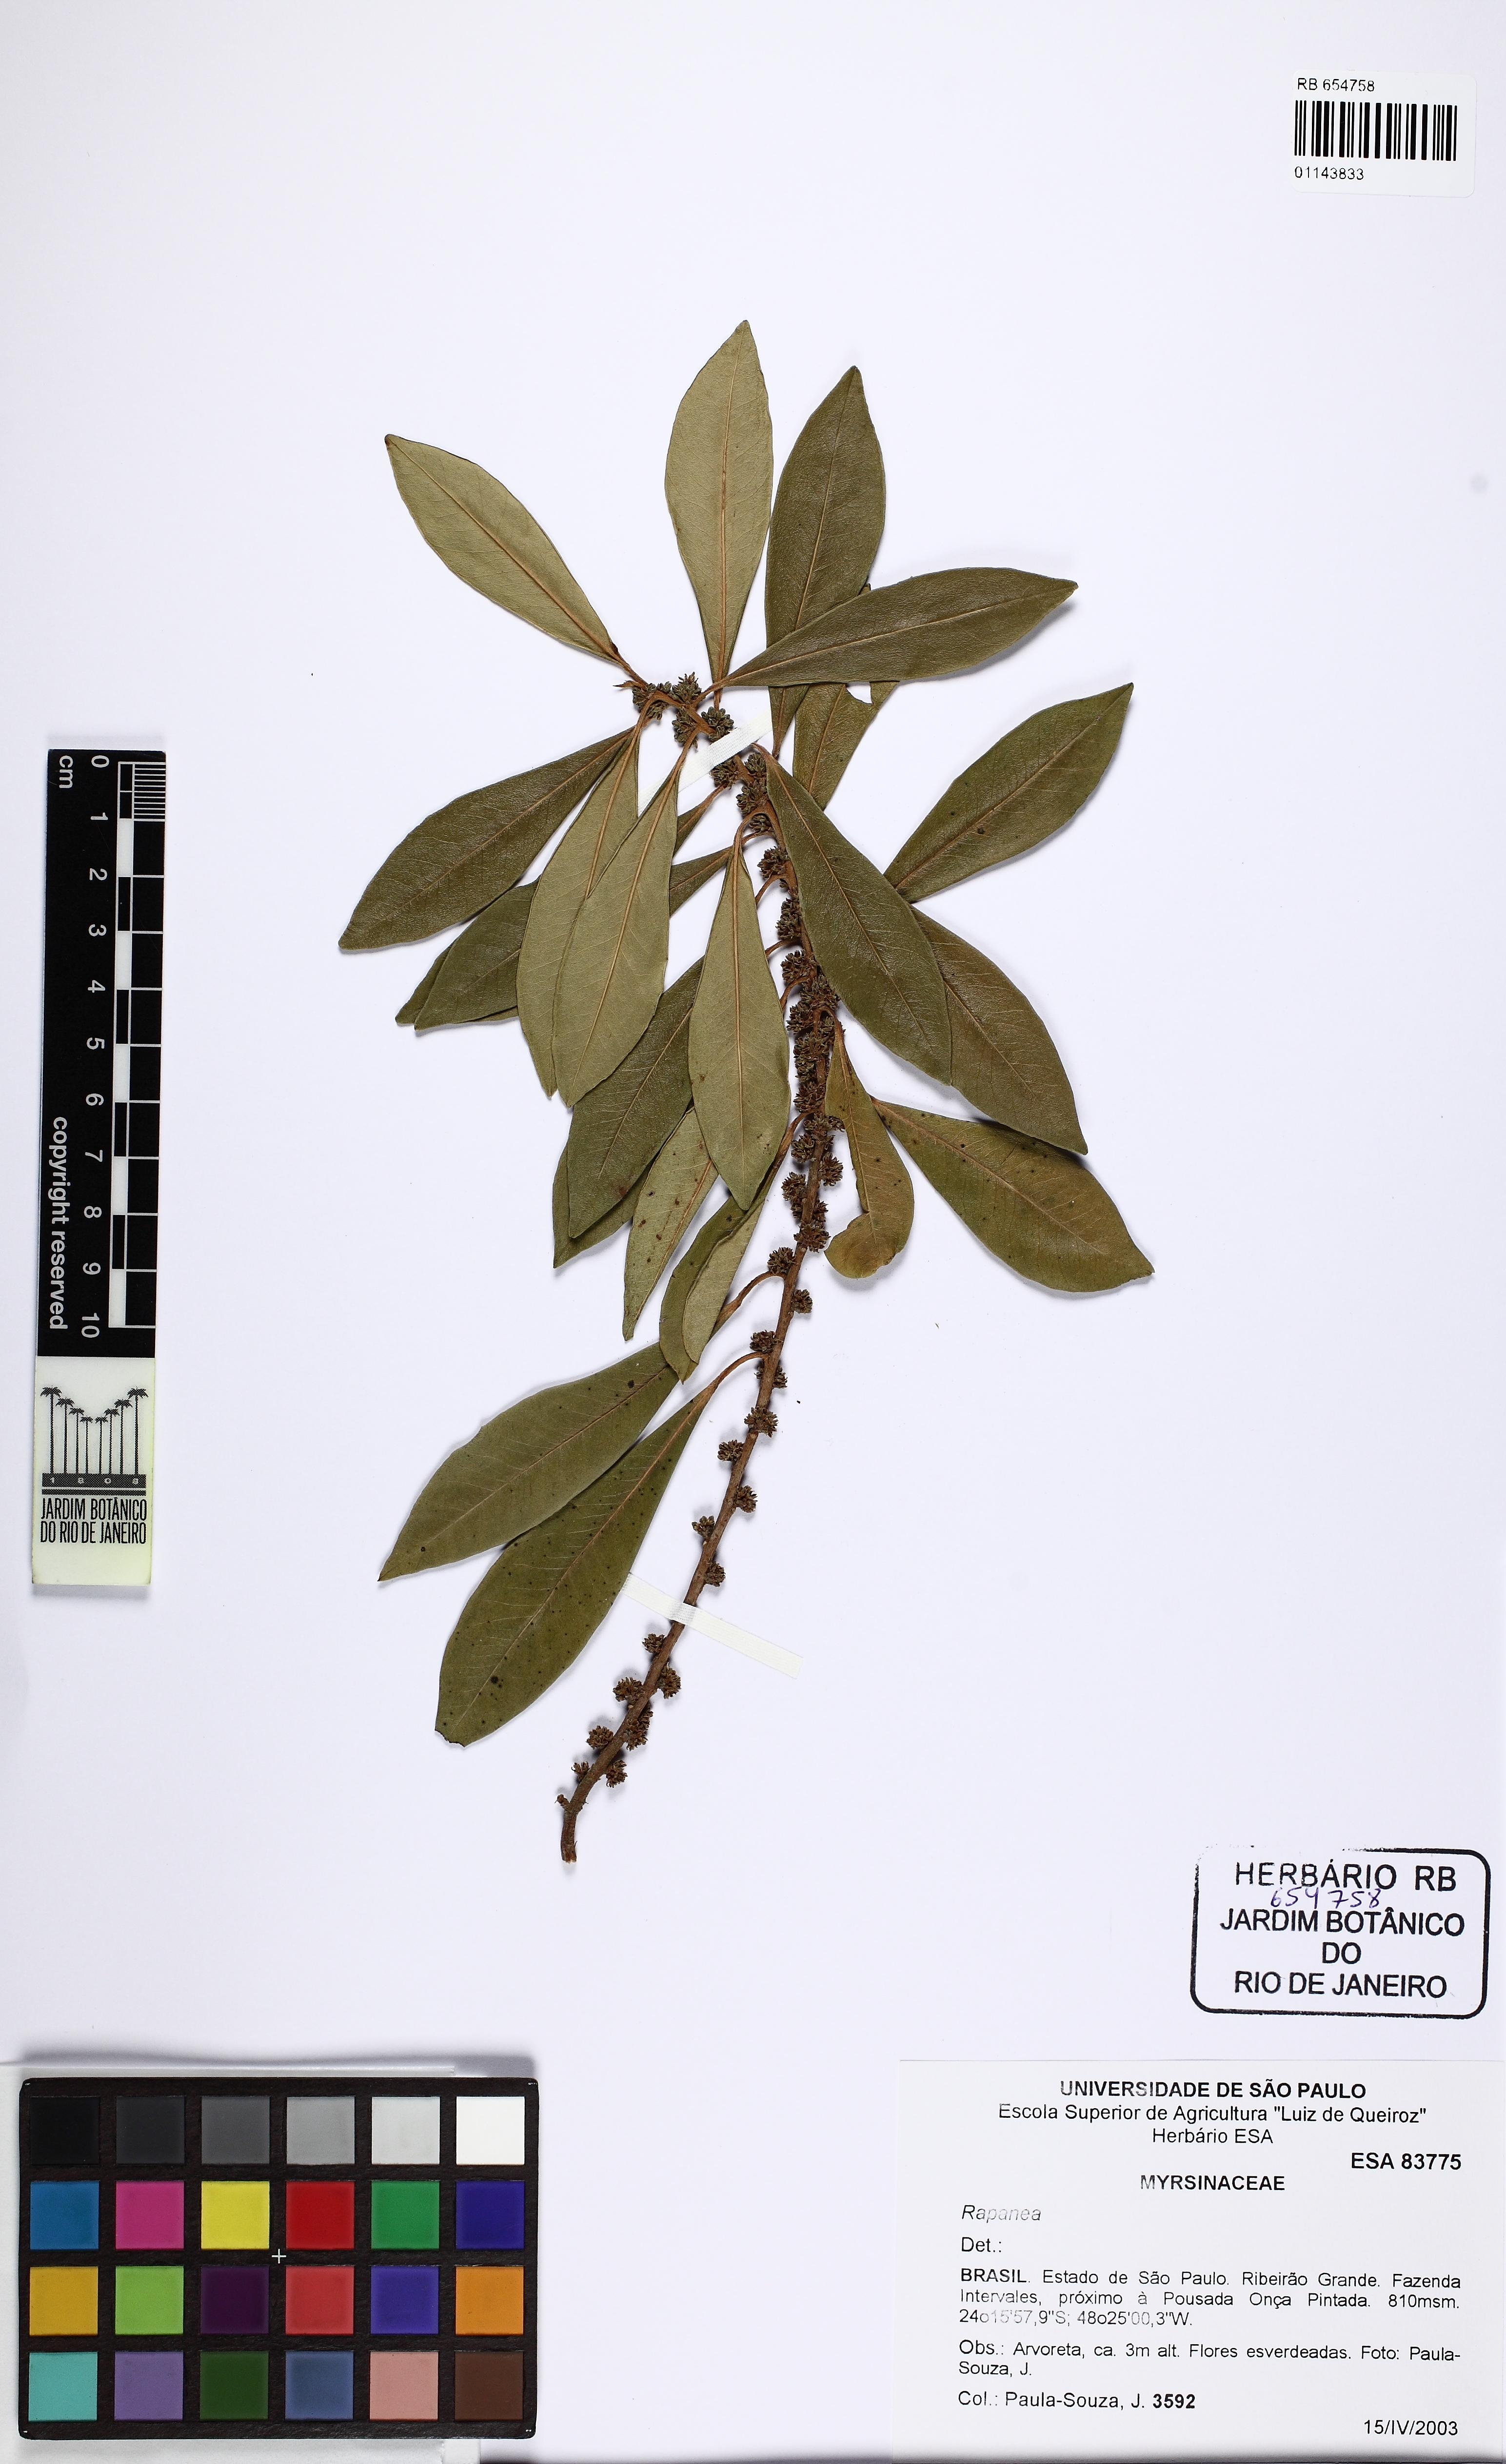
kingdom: Plantae
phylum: Tracheophyta
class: Magnoliopsida
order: Ericales
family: Primulaceae
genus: Myrsine
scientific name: Myrsine
